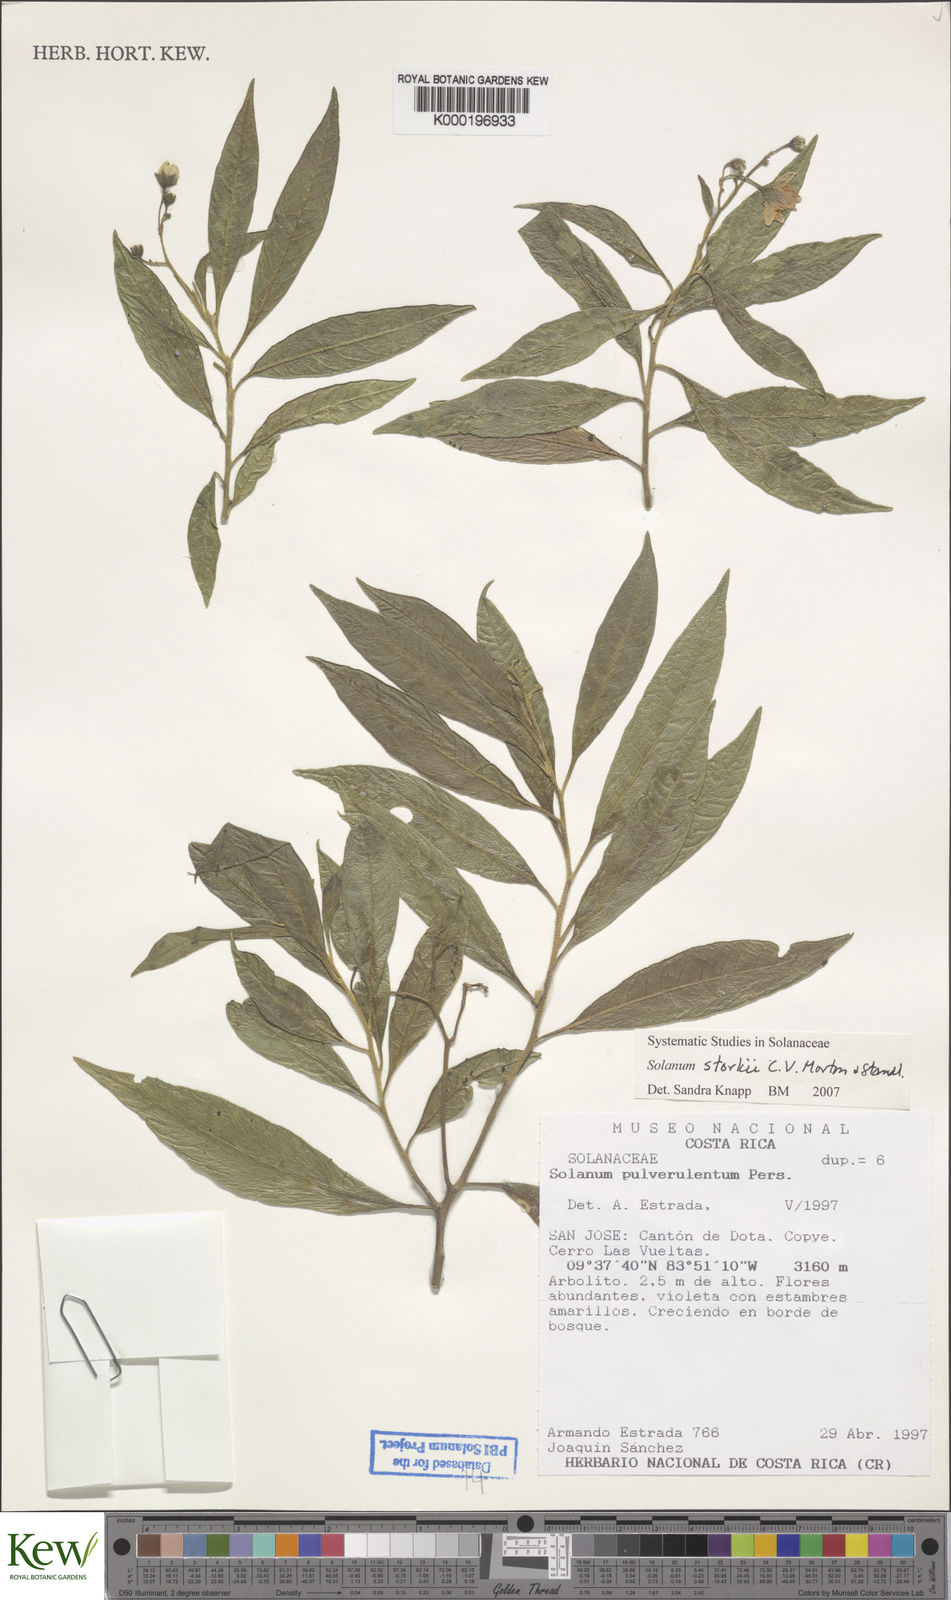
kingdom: Plantae
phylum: Tracheophyta
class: Magnoliopsida
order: Solanales
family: Solanaceae
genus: Solanum
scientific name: Solanum storkii
